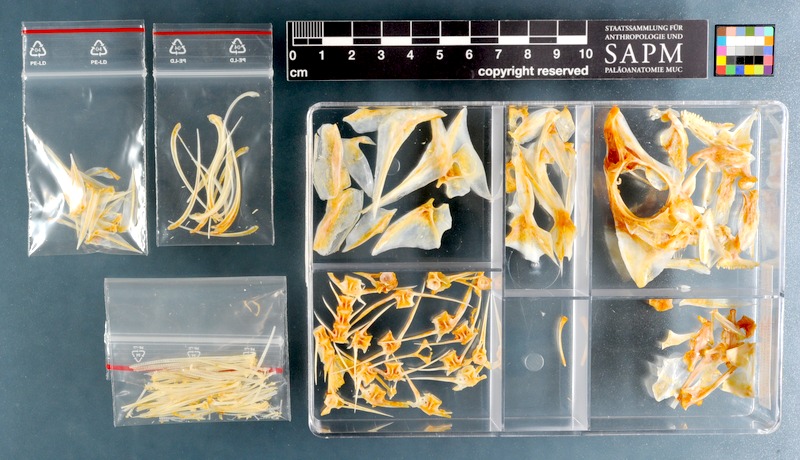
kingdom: Animalia
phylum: Chordata
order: Perciformes
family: Lethrinidae
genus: Lethrinus
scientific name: Lethrinus nebulosus
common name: Spangled emperor
